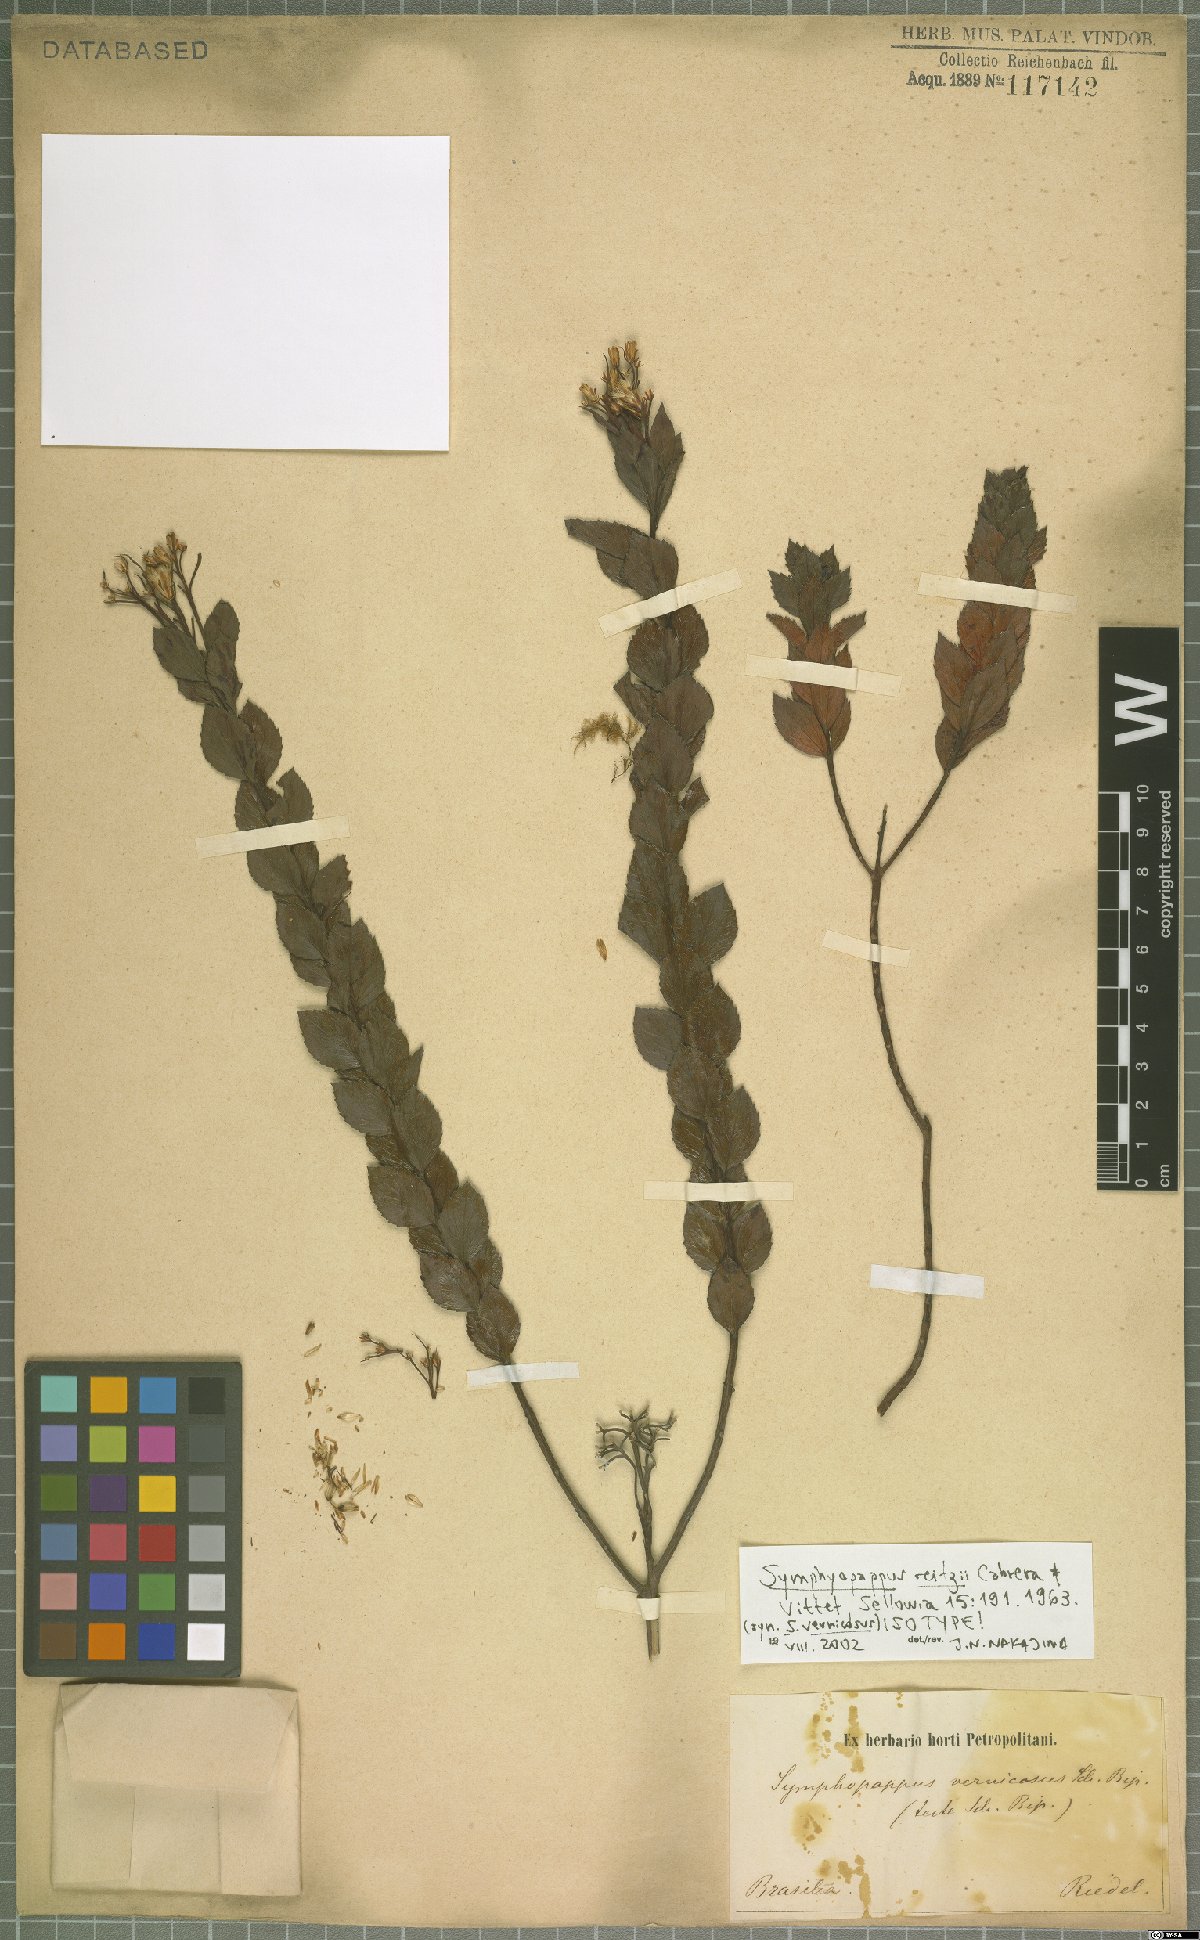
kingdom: Plantae
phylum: Tracheophyta
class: Magnoliopsida
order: Asterales
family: Asteraceae
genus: Symphyopappus
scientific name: Symphyopappus reitzii
